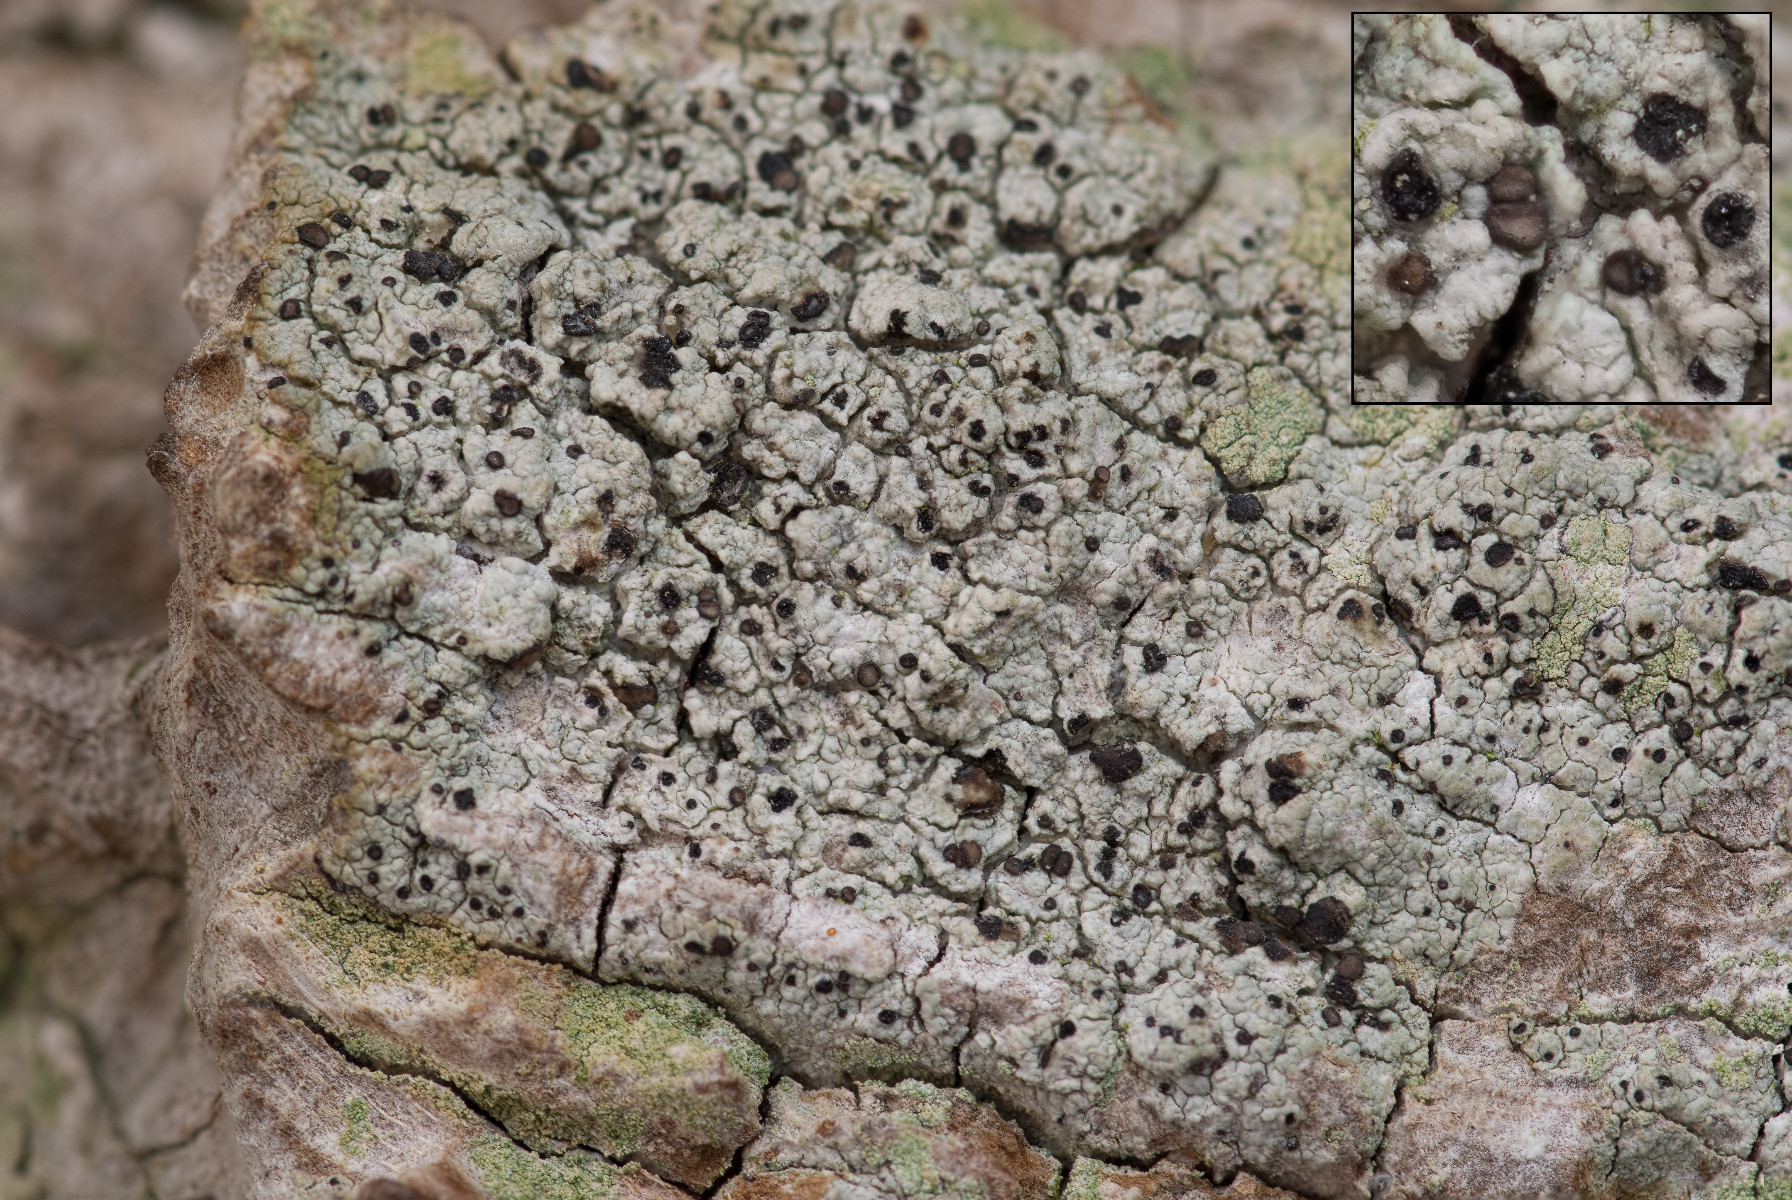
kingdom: Fungi
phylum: Ascomycota
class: Lecanoromycetes
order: Lecanorales
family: Ramalinaceae
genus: Cliostomum
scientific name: Cliostomum griffithii
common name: trefarvet tensporelav
